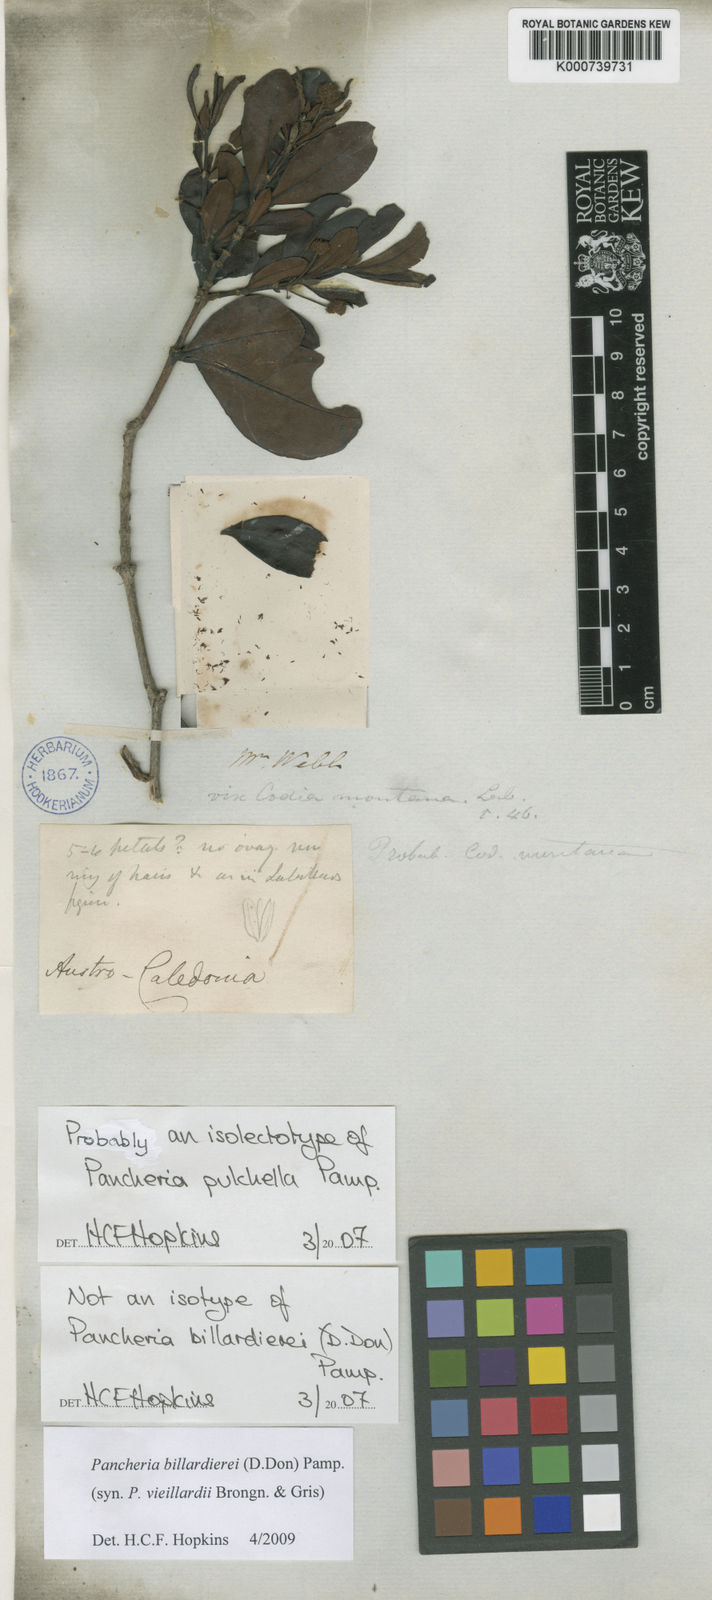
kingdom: Plantae
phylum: Tracheophyta
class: Magnoliopsida
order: Oxalidales
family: Cunoniaceae
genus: Pancheria
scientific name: Pancheria billardierei
